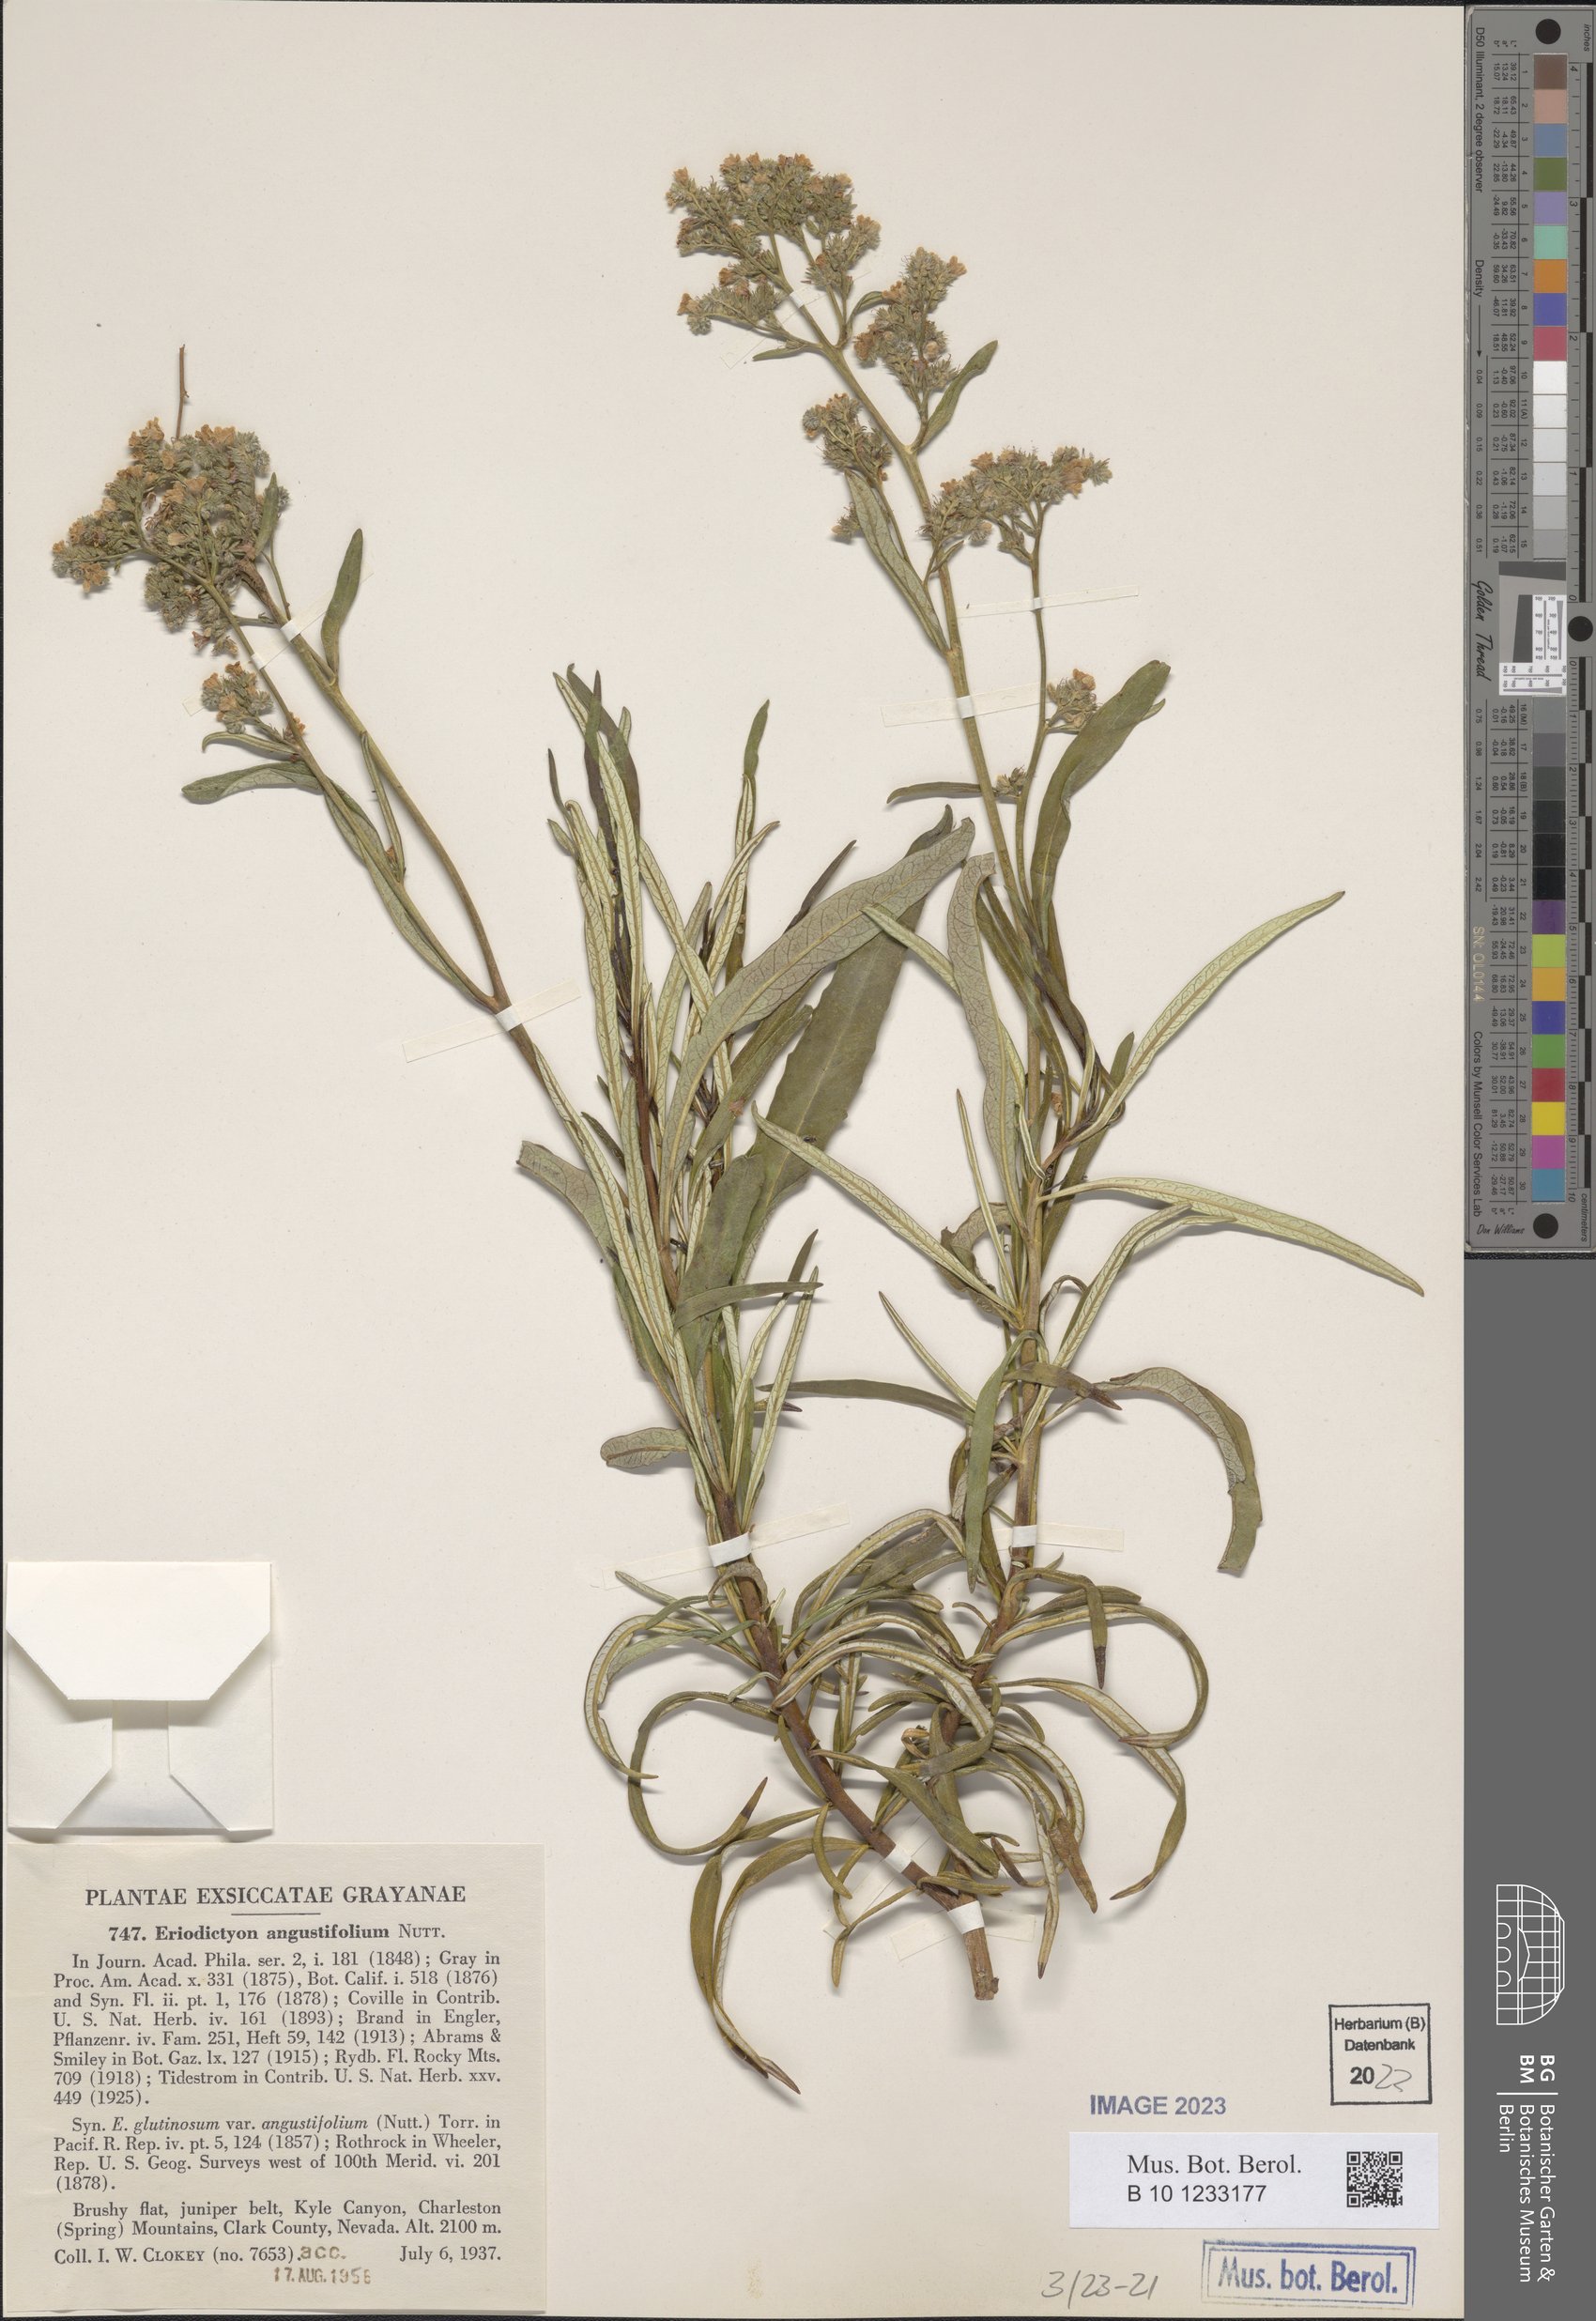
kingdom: Plantae
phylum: Tracheophyta
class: Magnoliopsida
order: Boraginales
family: Namaceae
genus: Eriodictyon
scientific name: Eriodictyon angustifolium
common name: Narrow-leaf yerba santa
